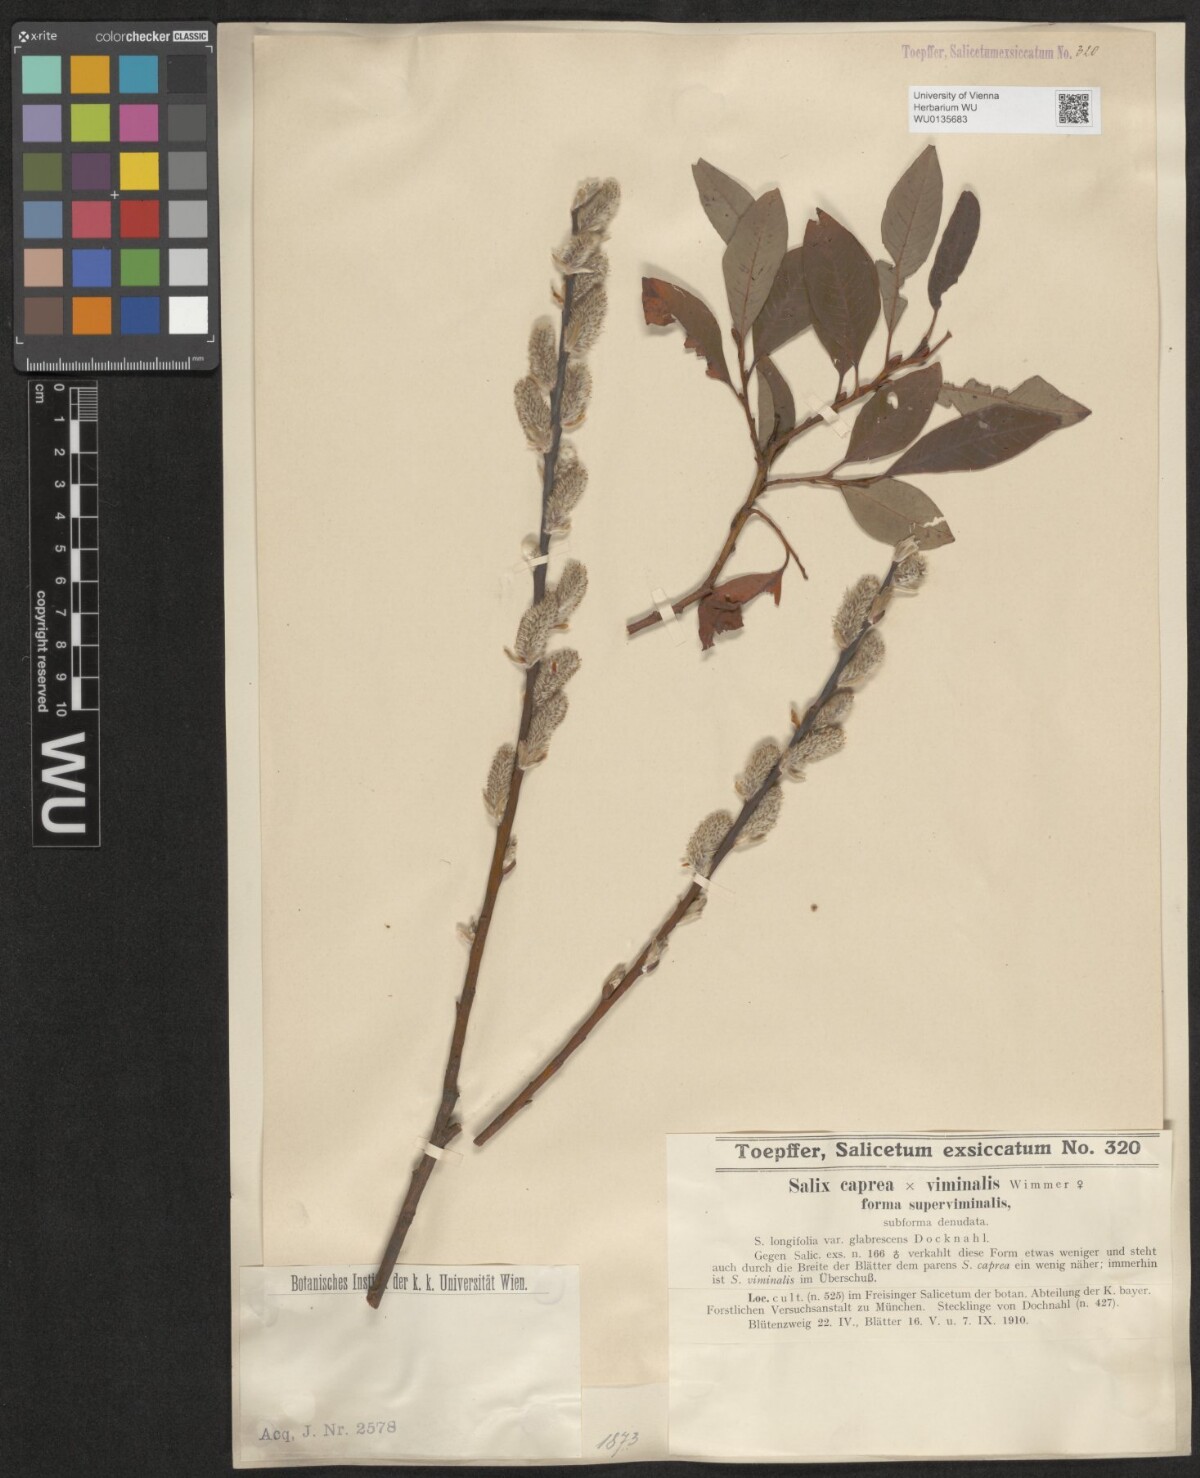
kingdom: Plantae
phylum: Tracheophyta
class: Magnoliopsida
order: Malpighiales
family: Salicaceae
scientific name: Salicaceae
